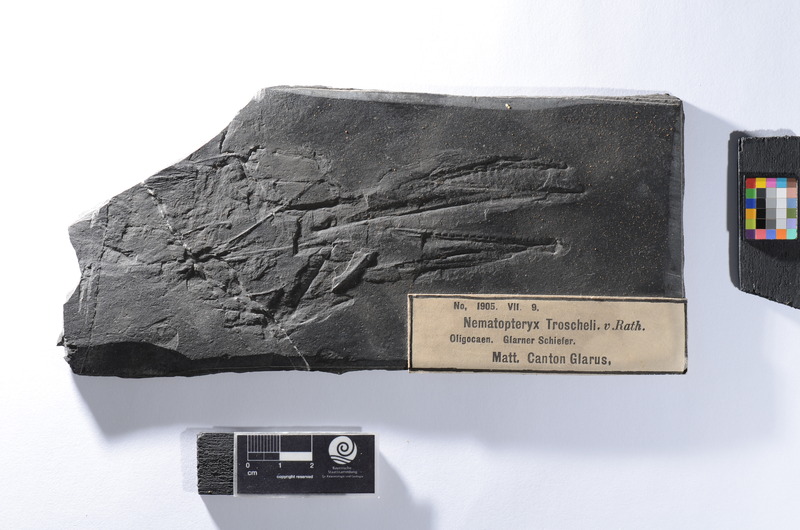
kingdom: Animalia
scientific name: Animalia
